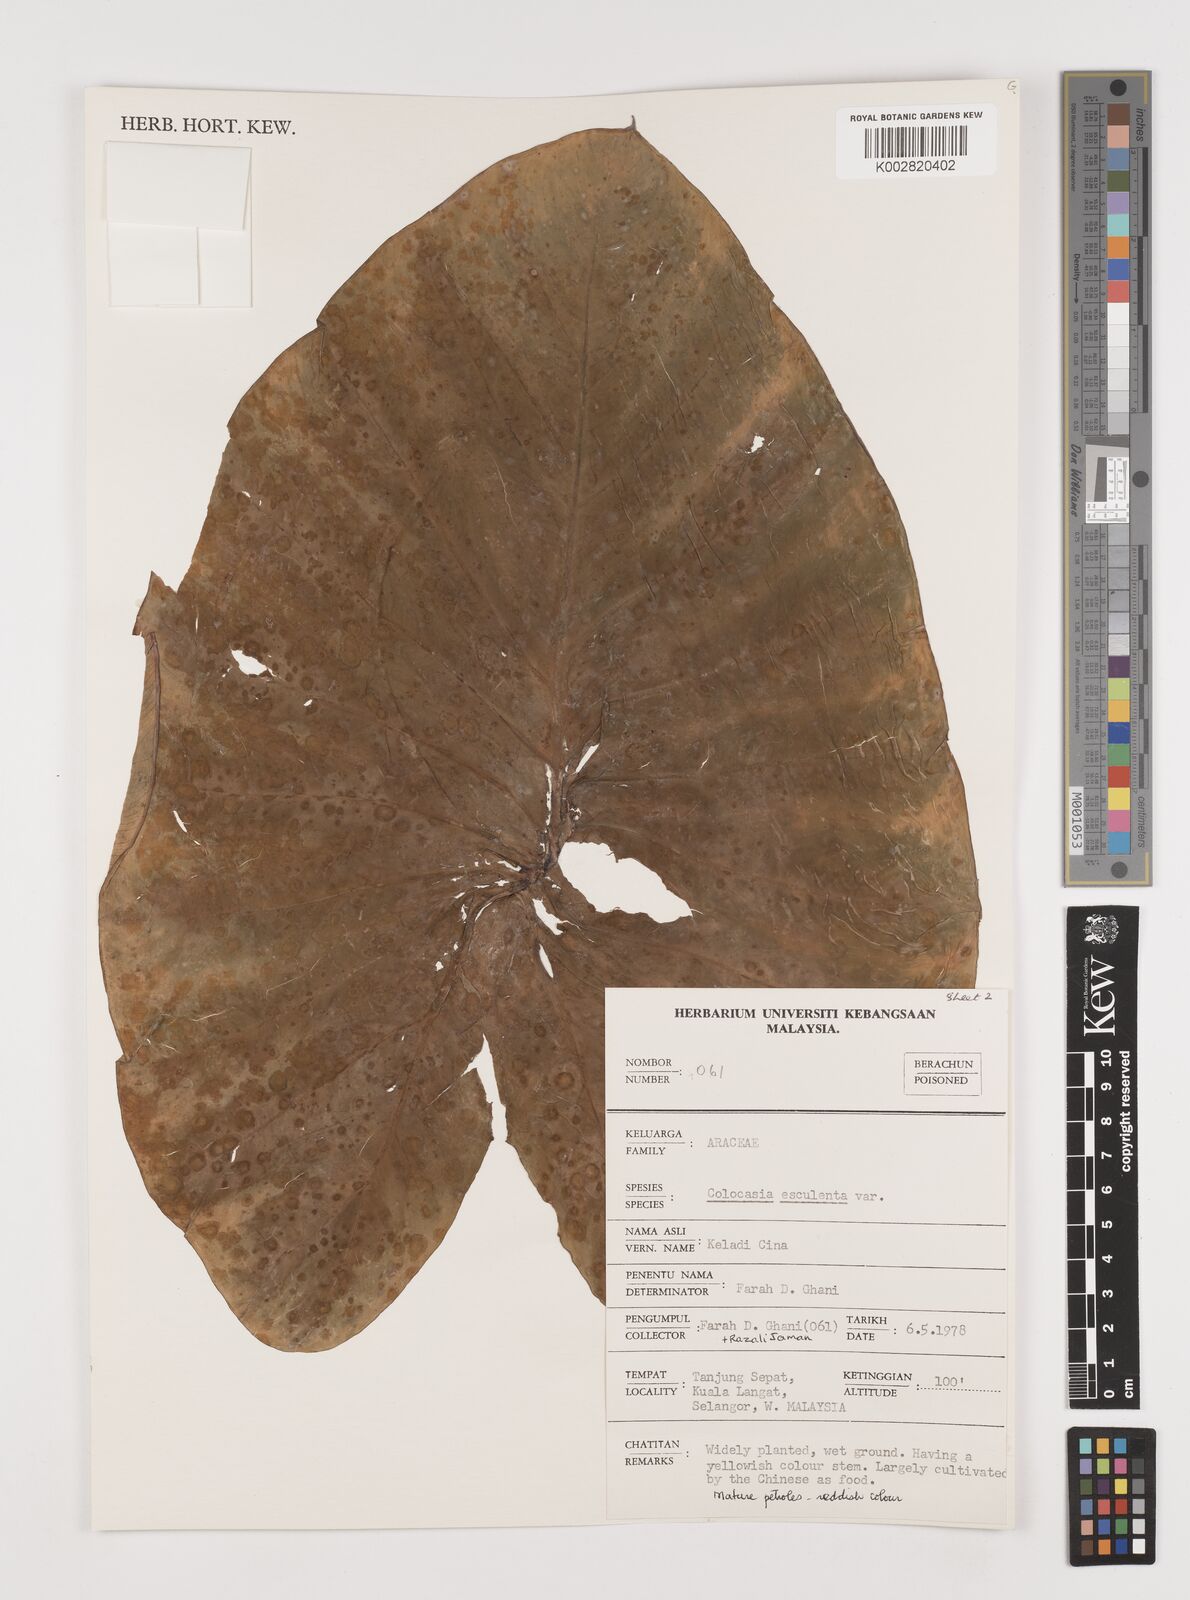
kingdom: Plantae
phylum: Tracheophyta
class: Liliopsida
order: Alismatales
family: Araceae
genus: Colocasia
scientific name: Colocasia esculenta
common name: Taro
